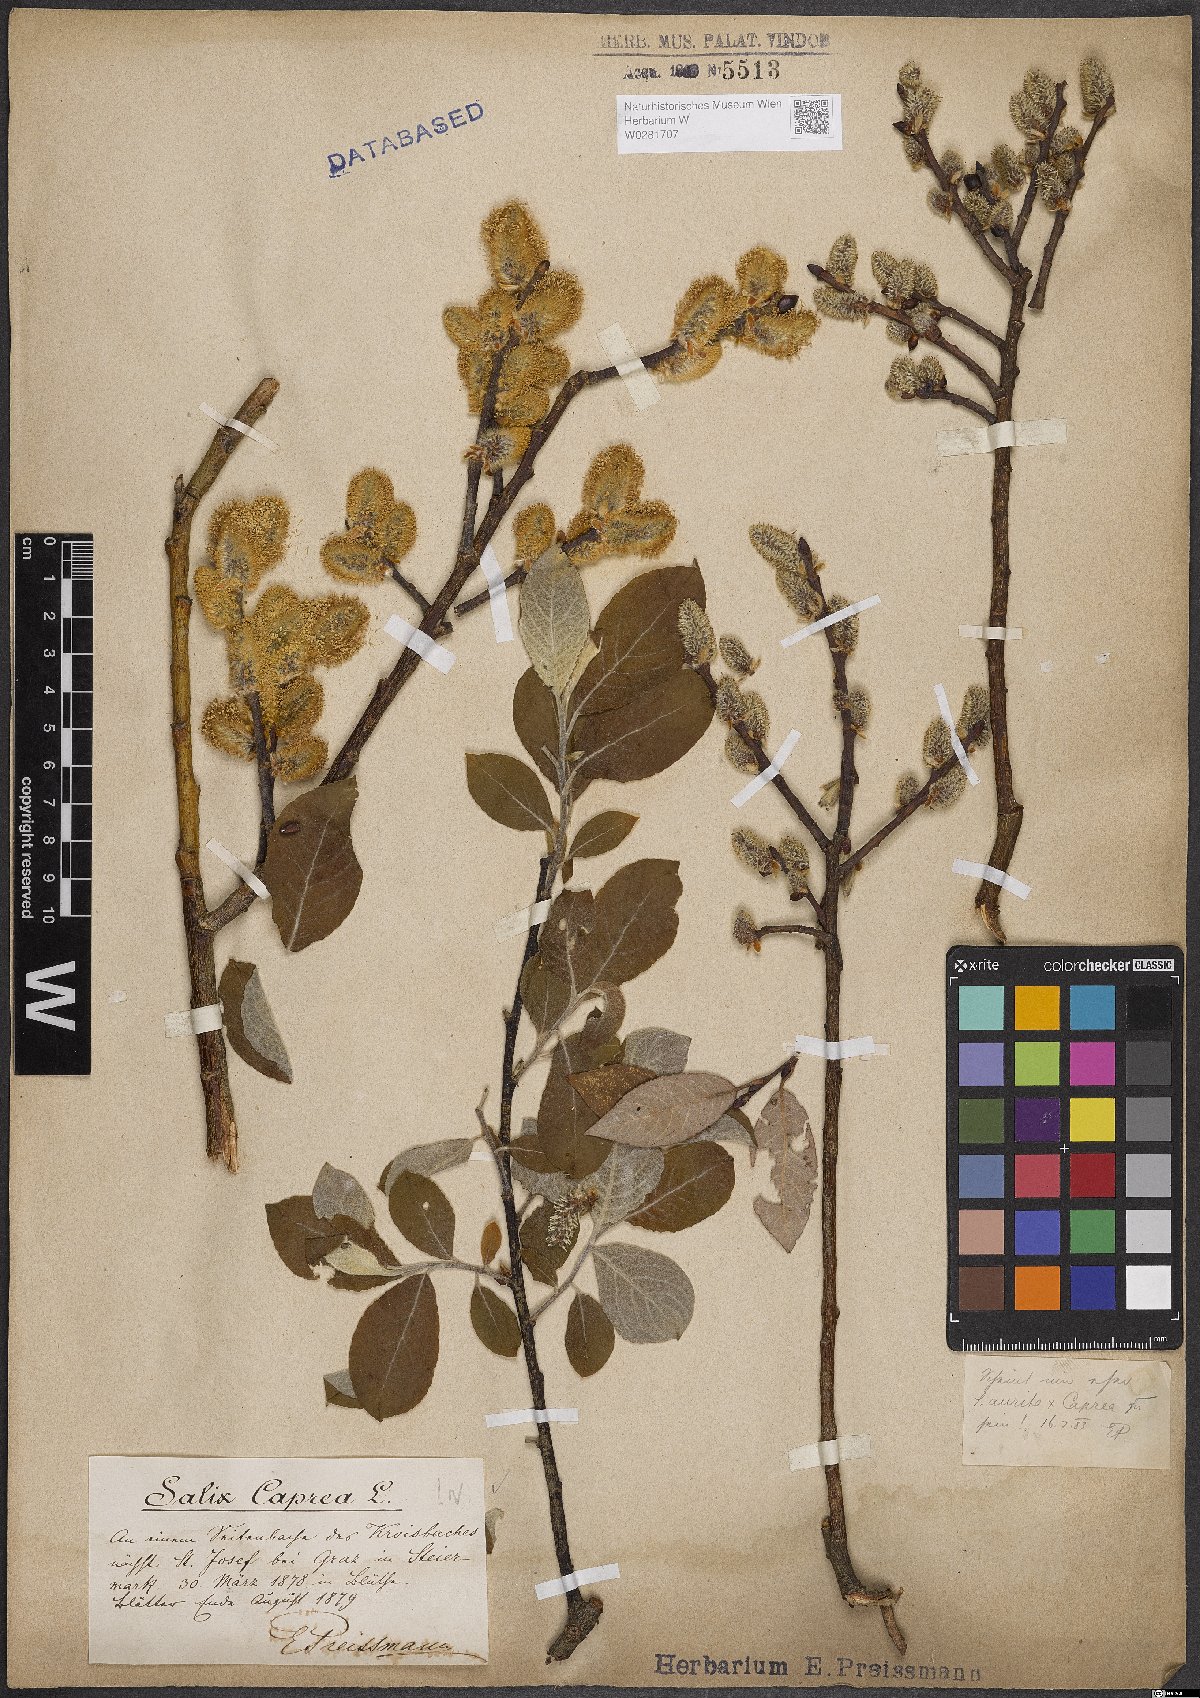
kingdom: Plantae
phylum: Tracheophyta
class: Magnoliopsida
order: Malpighiales
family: Salicaceae
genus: Salix
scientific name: Salix caprea
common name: Goat willow
